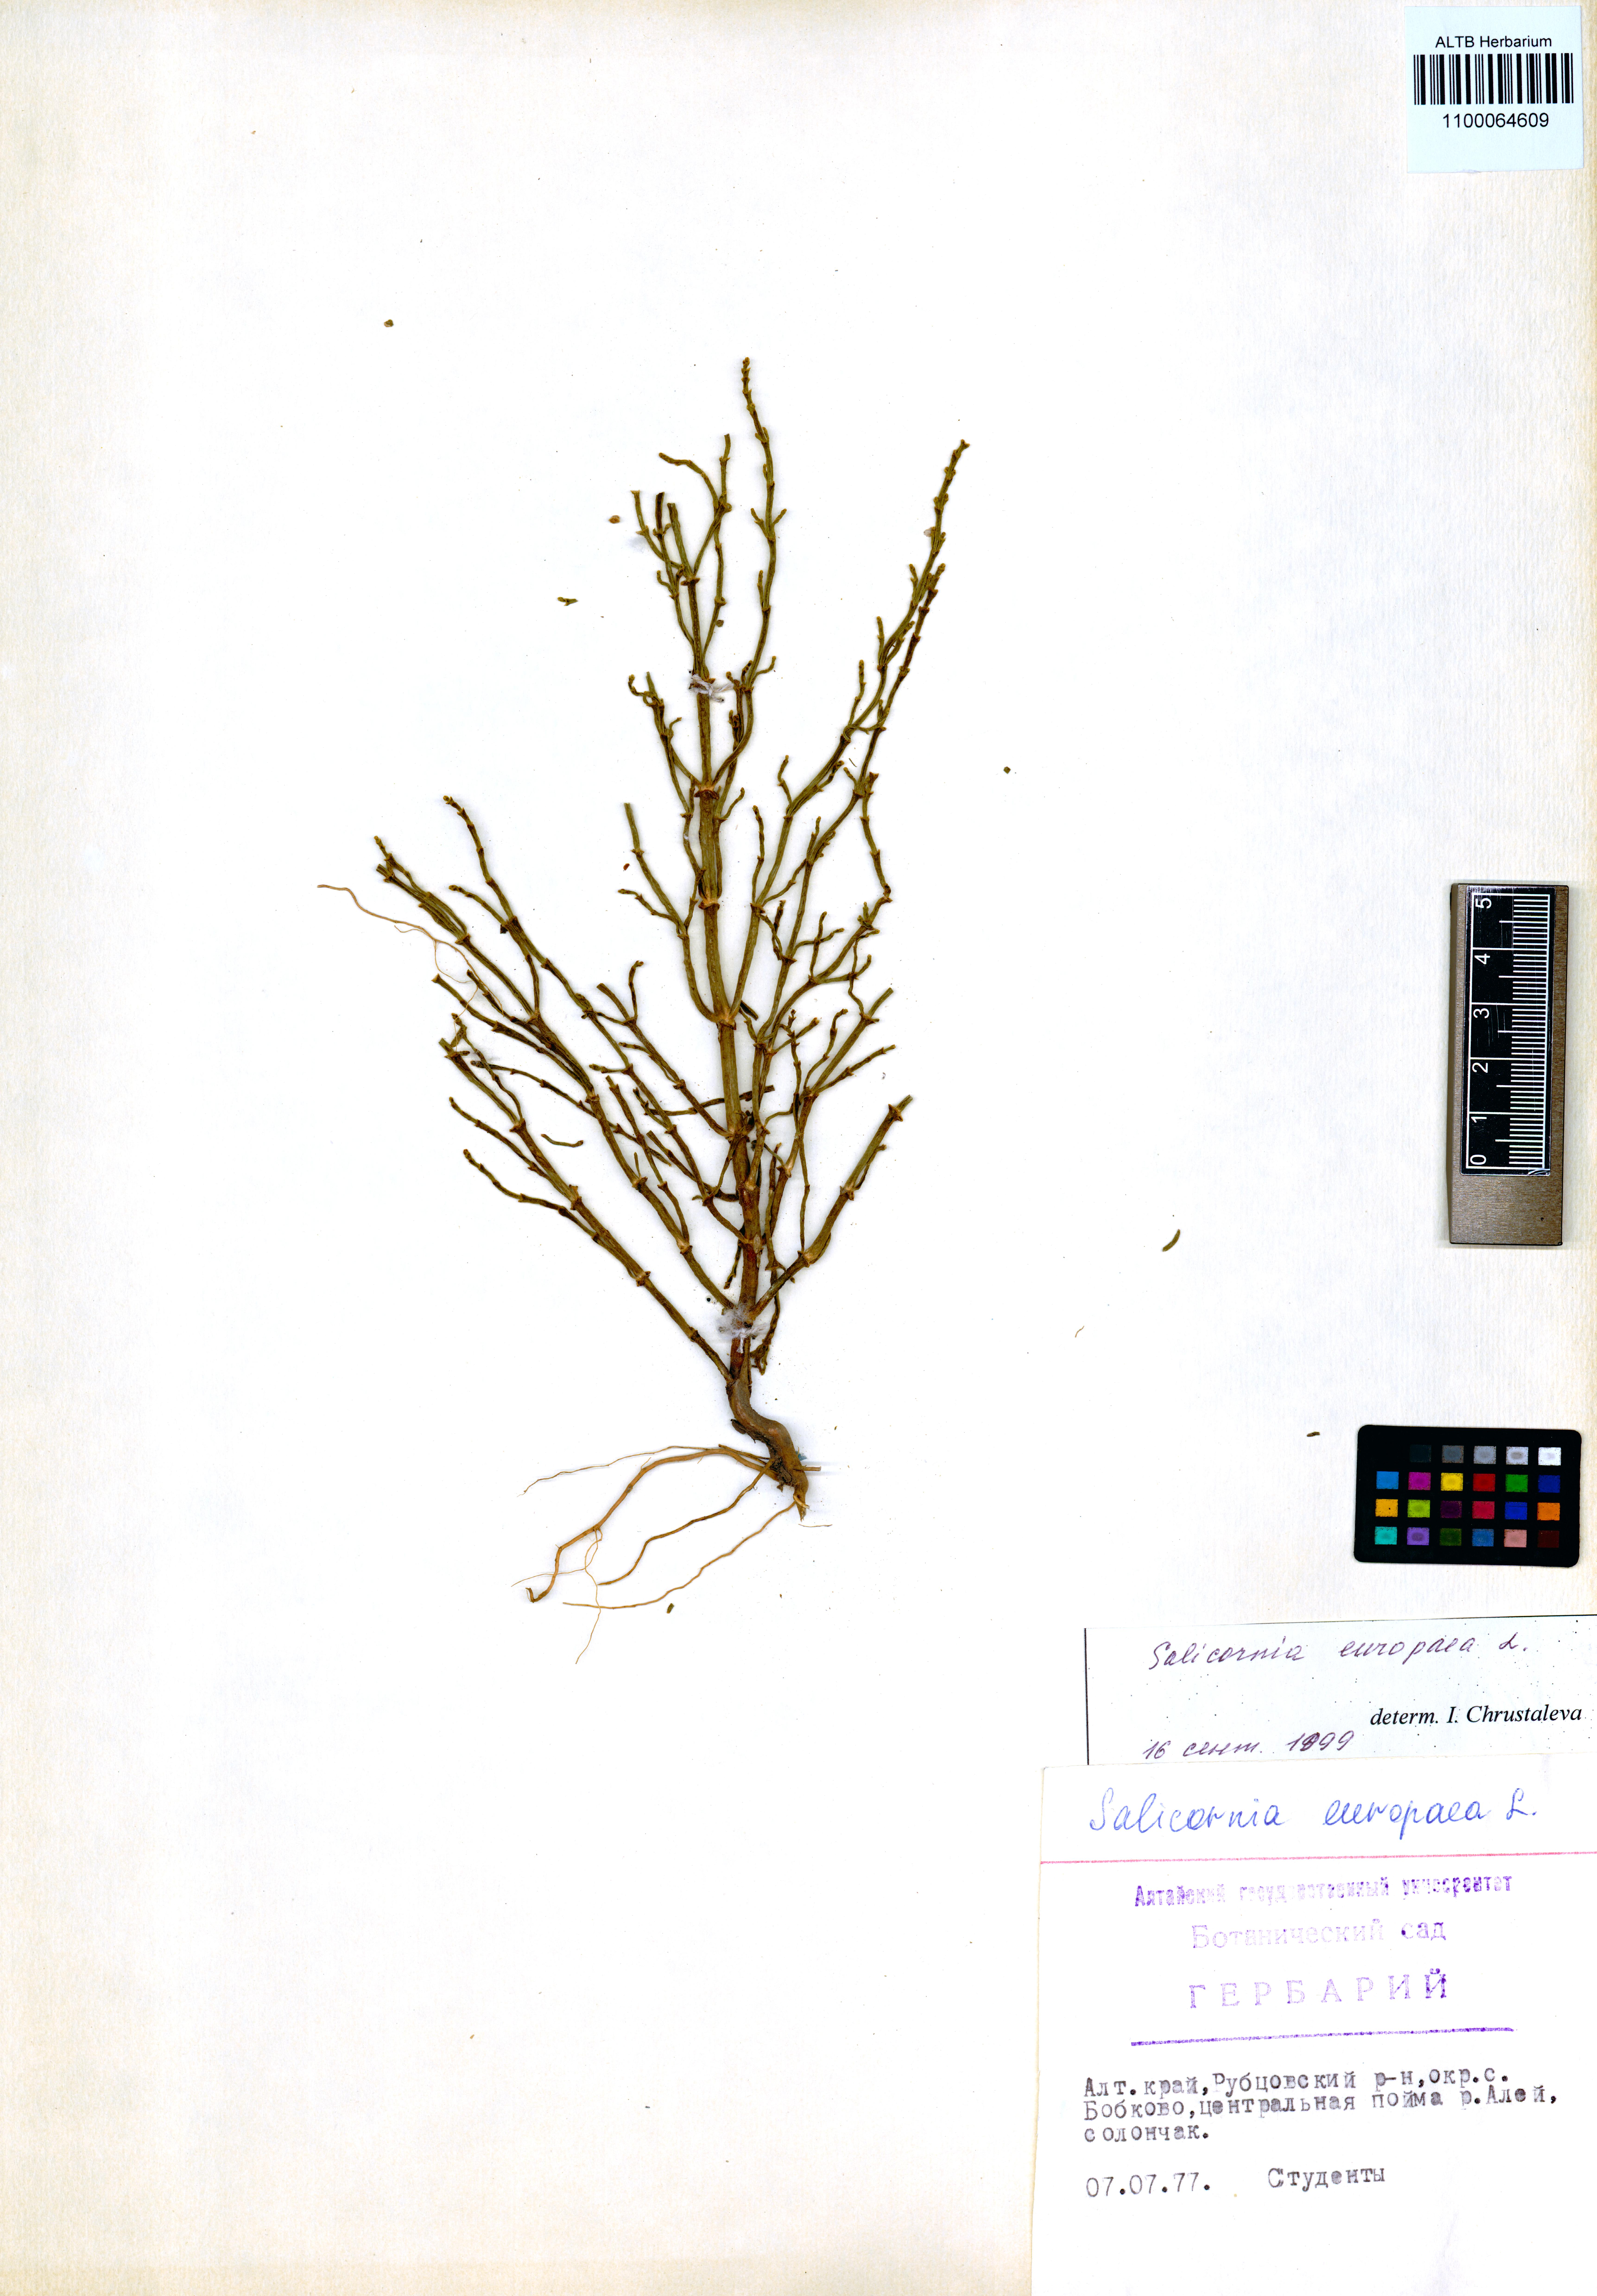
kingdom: Plantae
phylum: Tracheophyta
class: Magnoliopsida
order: Caryophyllales
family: Amaranthaceae
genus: Salicornia
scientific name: Salicornia europaea
